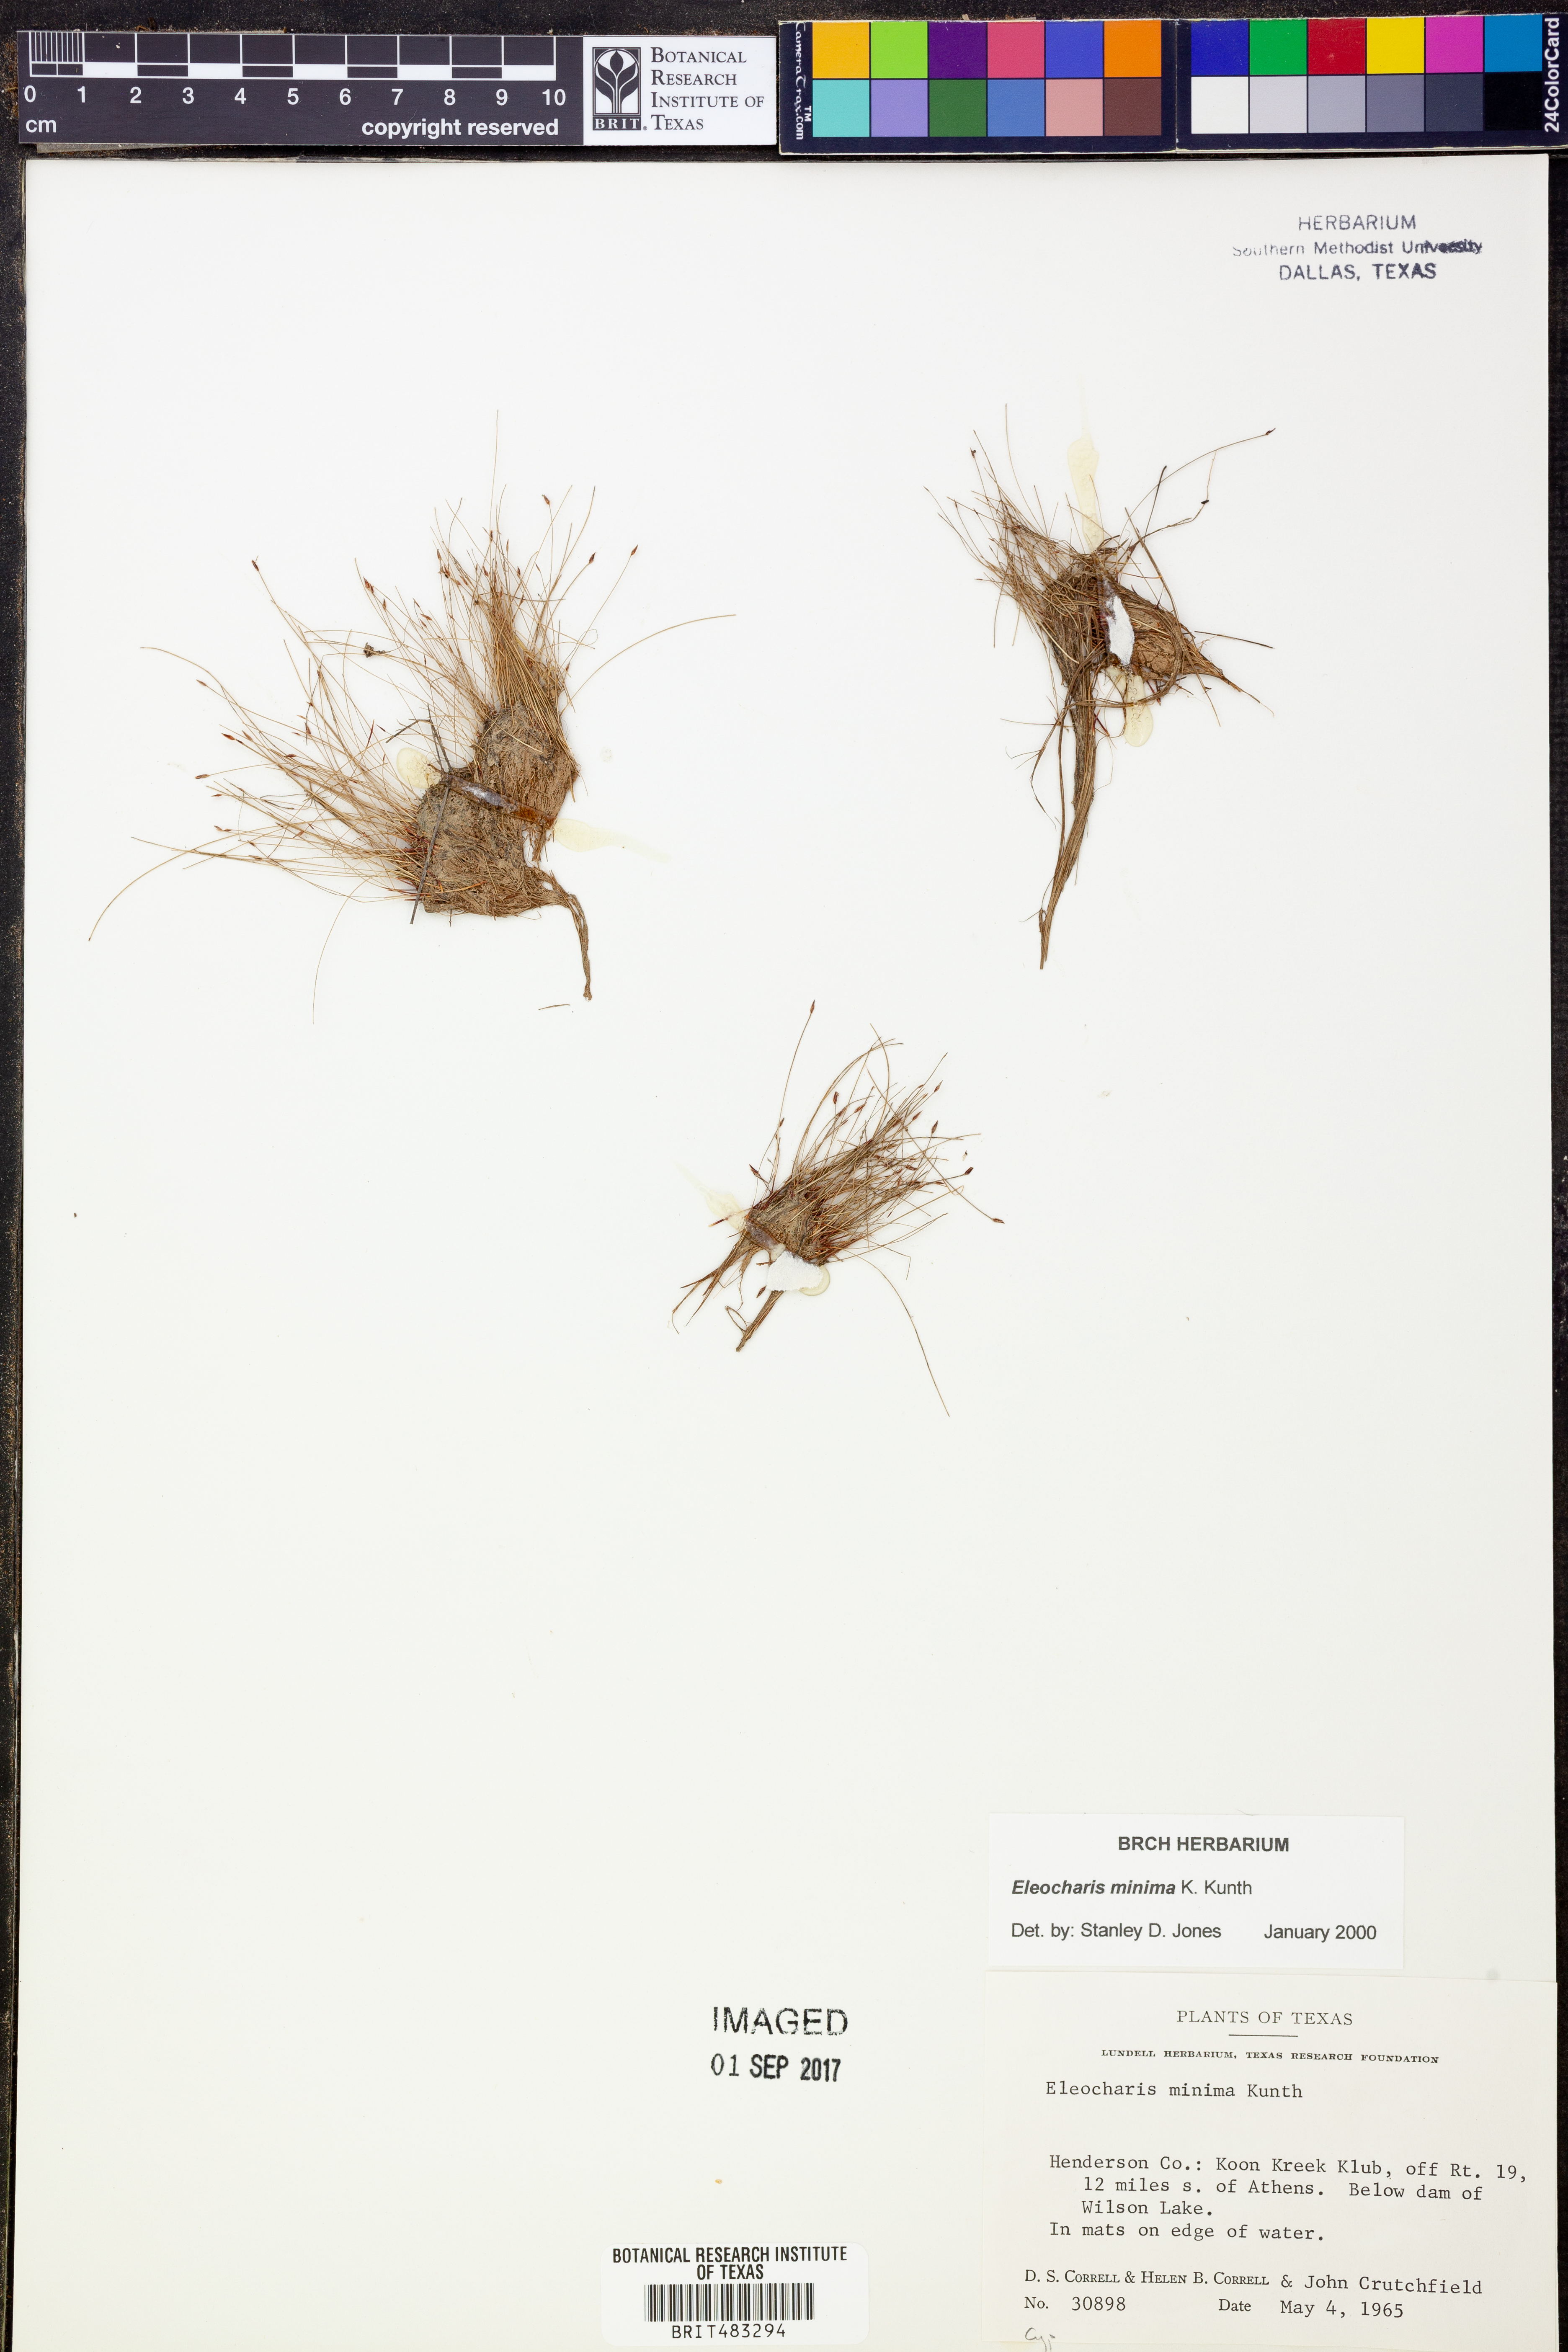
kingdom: Plantae
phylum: Tracheophyta
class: Liliopsida
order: Poales
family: Cyperaceae
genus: Eleocharis
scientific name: Eleocharis minima
